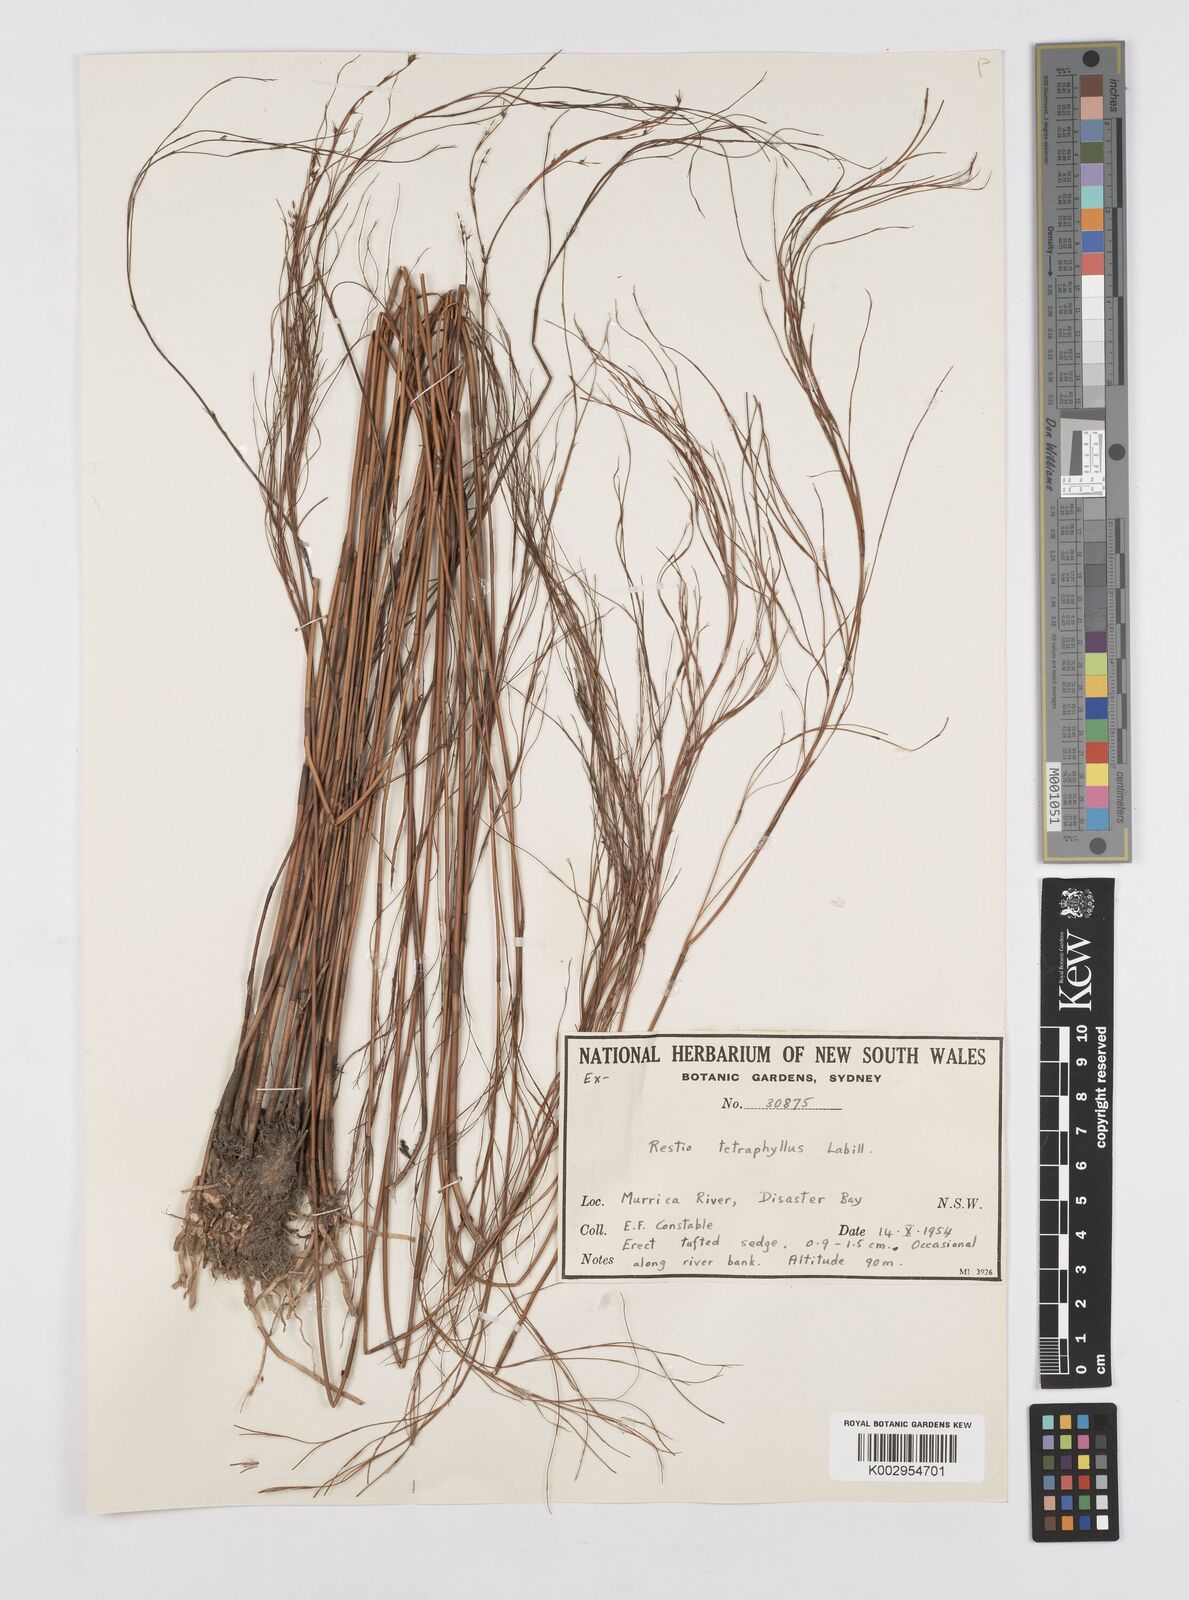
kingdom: Plantae
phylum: Tracheophyta
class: Liliopsida
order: Poales
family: Restionaceae
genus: Baloskion
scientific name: Baloskion tetraphyllum
